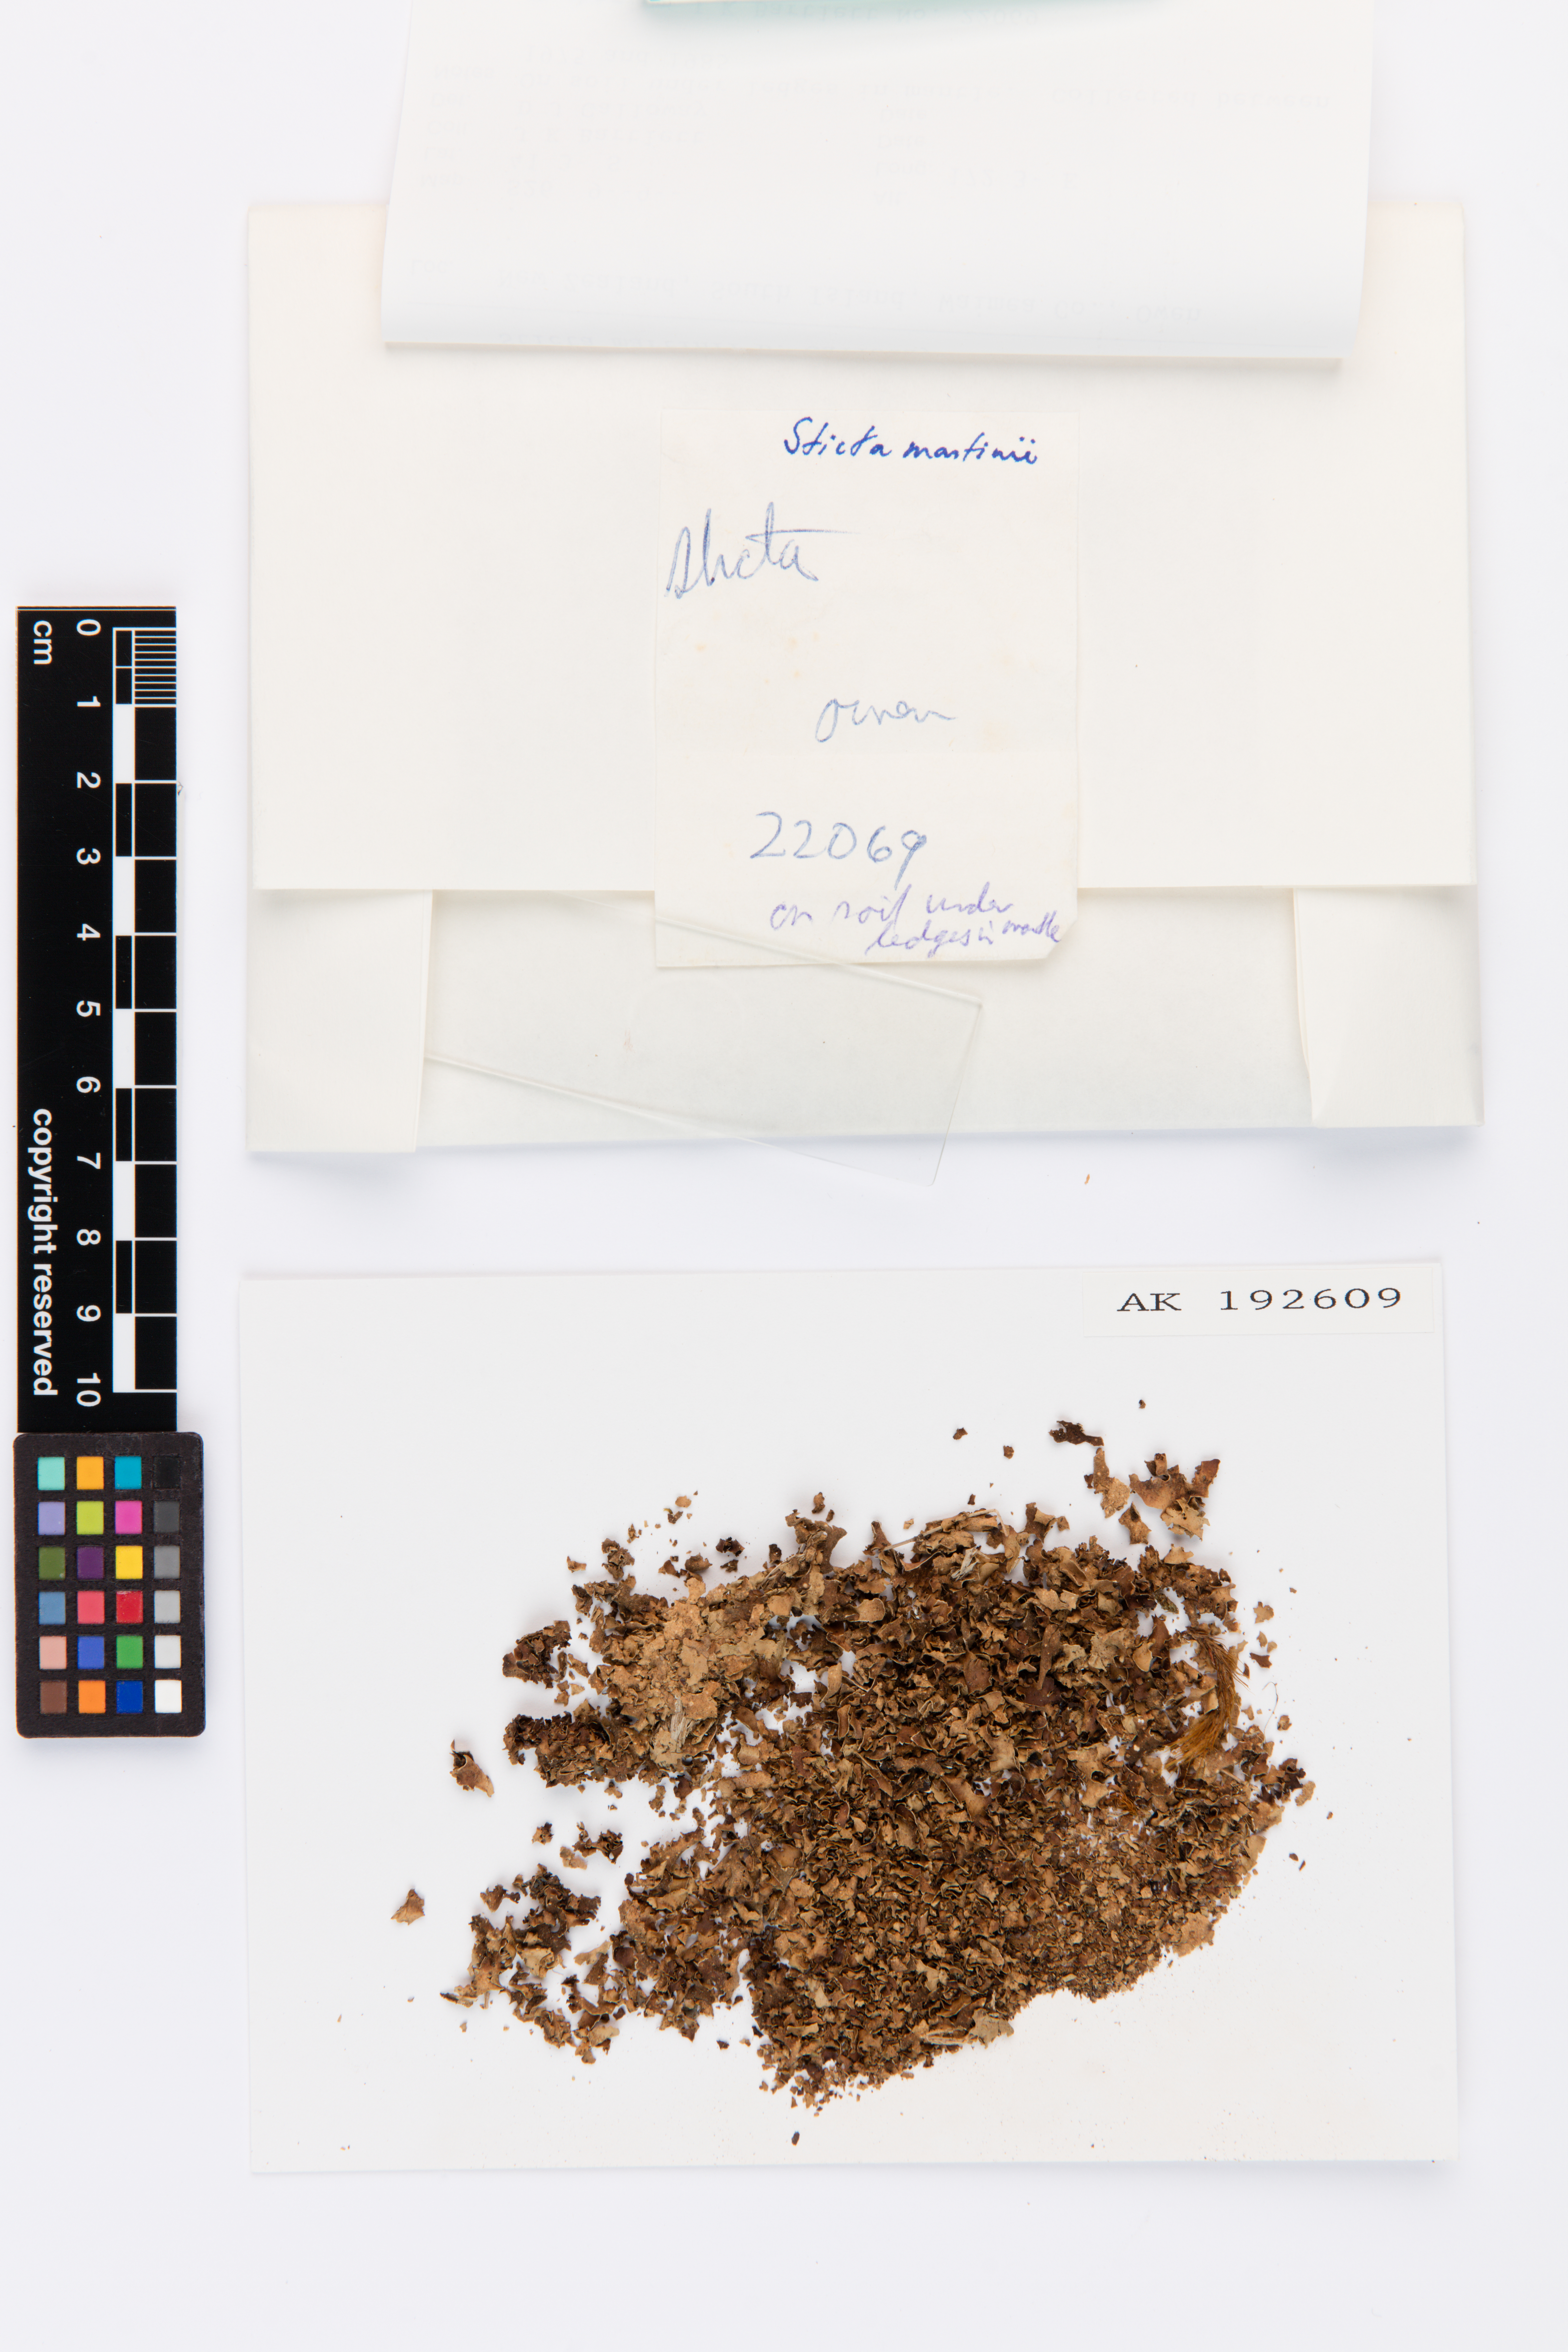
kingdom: Fungi
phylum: Ascomycota
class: Lecanoromycetes
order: Peltigerales
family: Lobariaceae
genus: Sticta
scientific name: Sticta martinii
